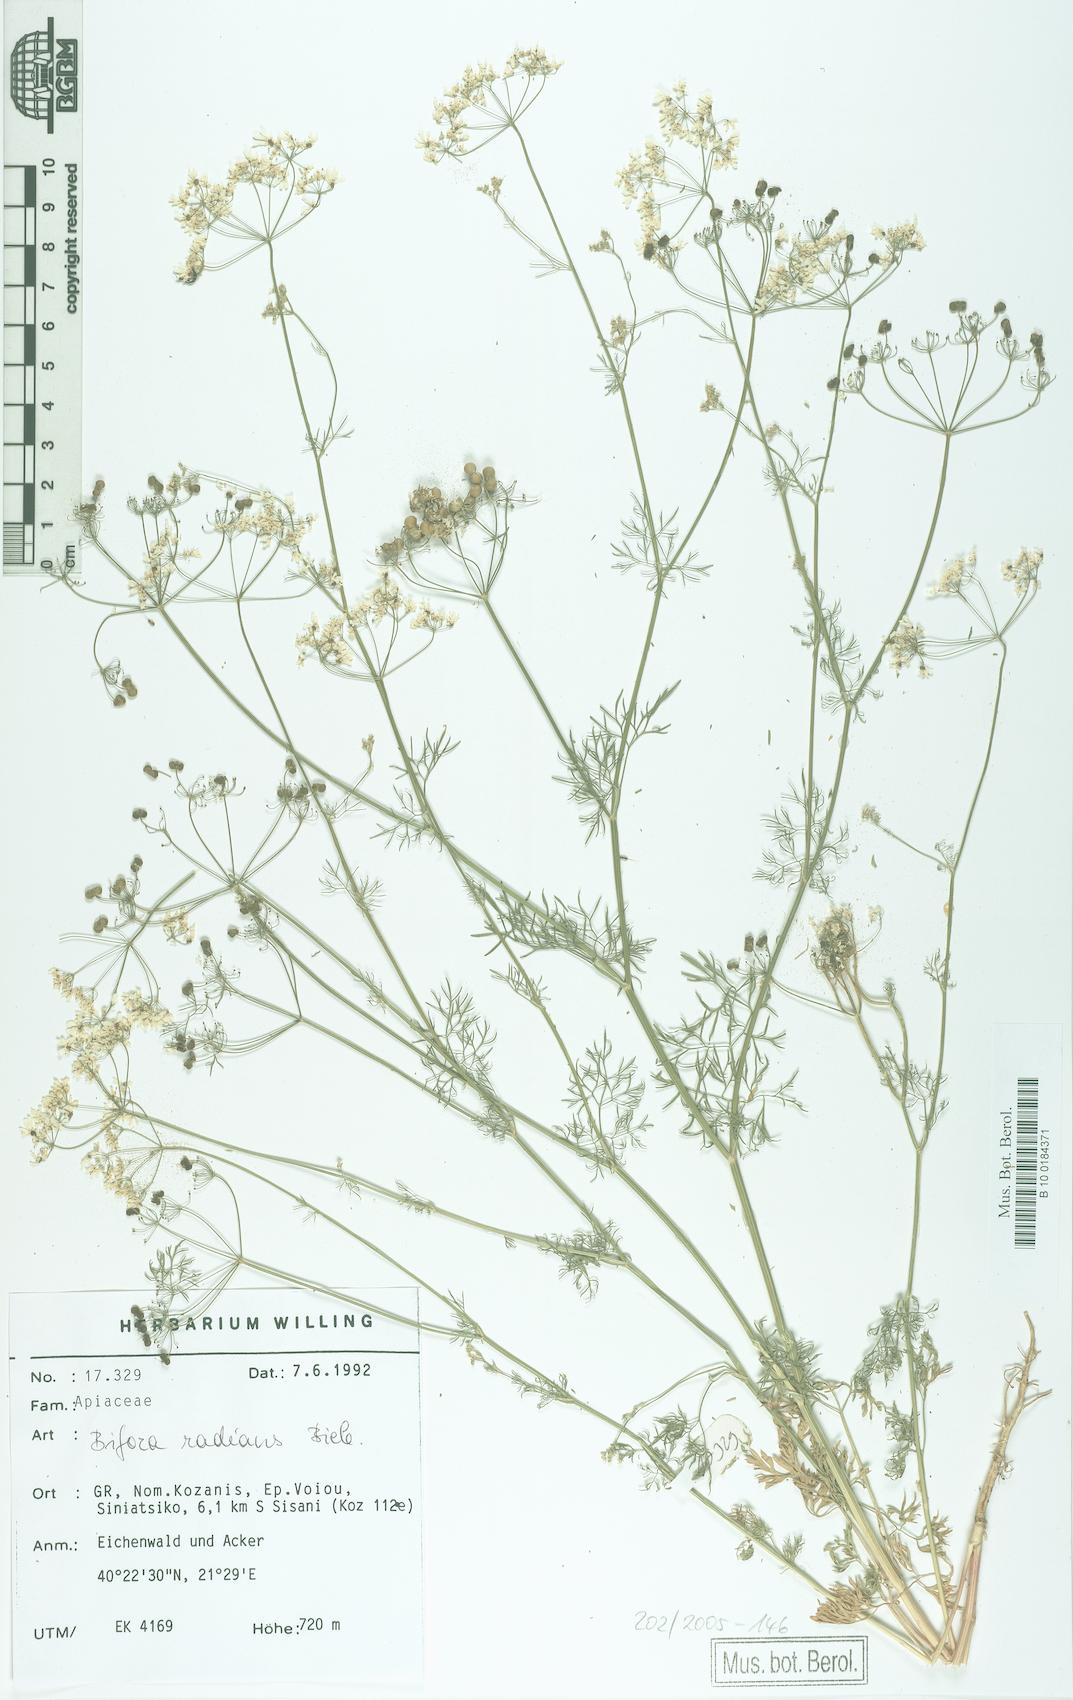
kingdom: Plantae
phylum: Tracheophyta
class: Magnoliopsida
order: Apiales
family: Apiaceae
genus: Bifora
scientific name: Bifora radians
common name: Wild bishop
